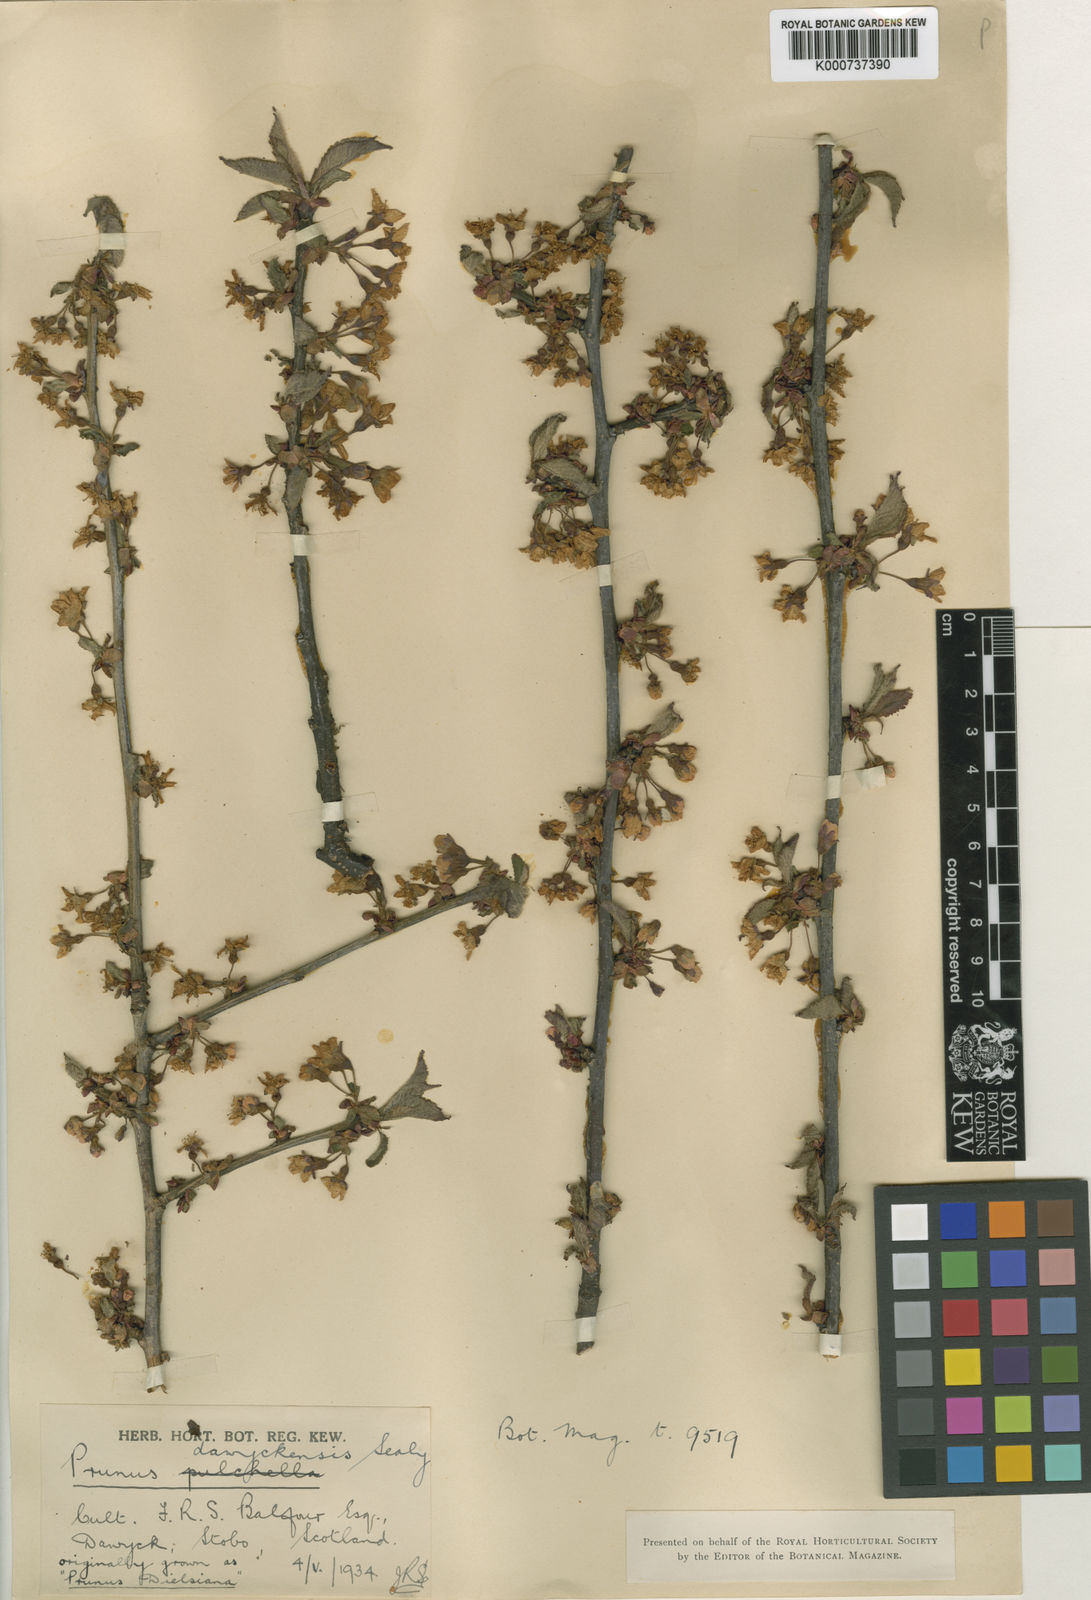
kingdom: Plantae
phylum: Tracheophyta
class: Magnoliopsida
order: Rosales
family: Rosaceae
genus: Prunus
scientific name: Prunus dawyckensis
